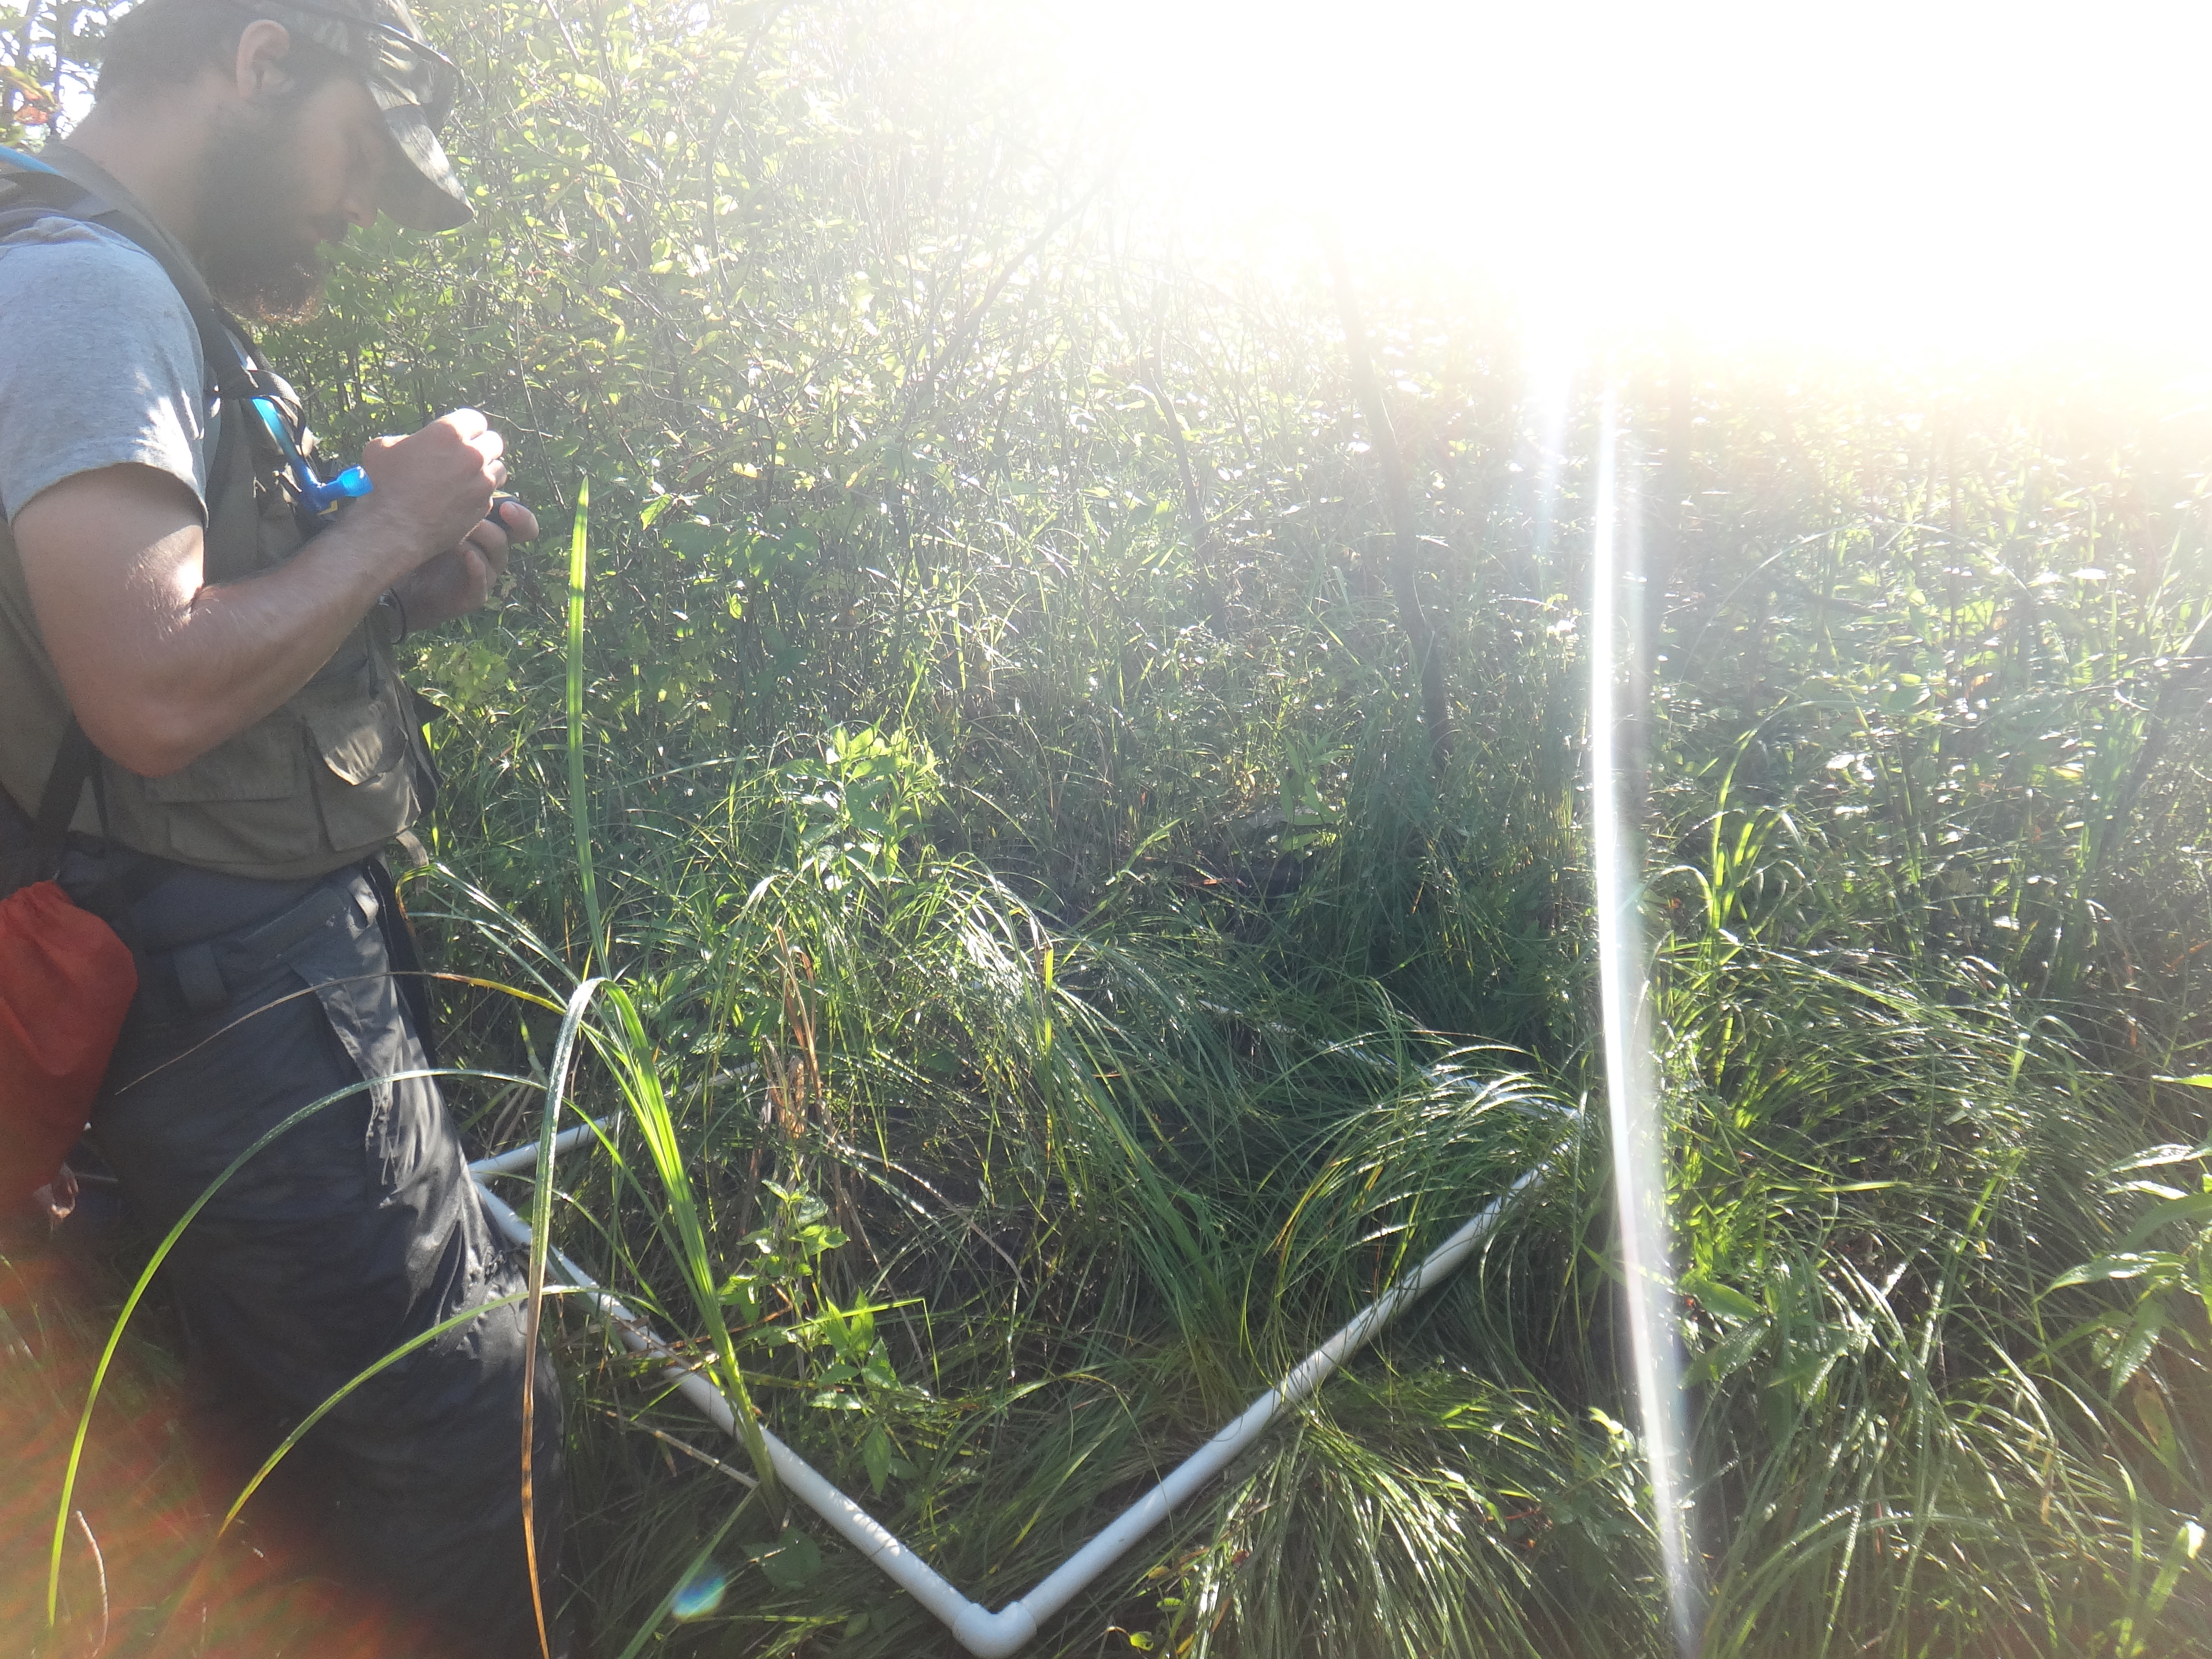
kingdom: Plantae
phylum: Tracheophyta
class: Liliopsida
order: Poales
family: Poaceae
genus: Glyceria
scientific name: Glyceria striata
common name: Fowl manna grass
